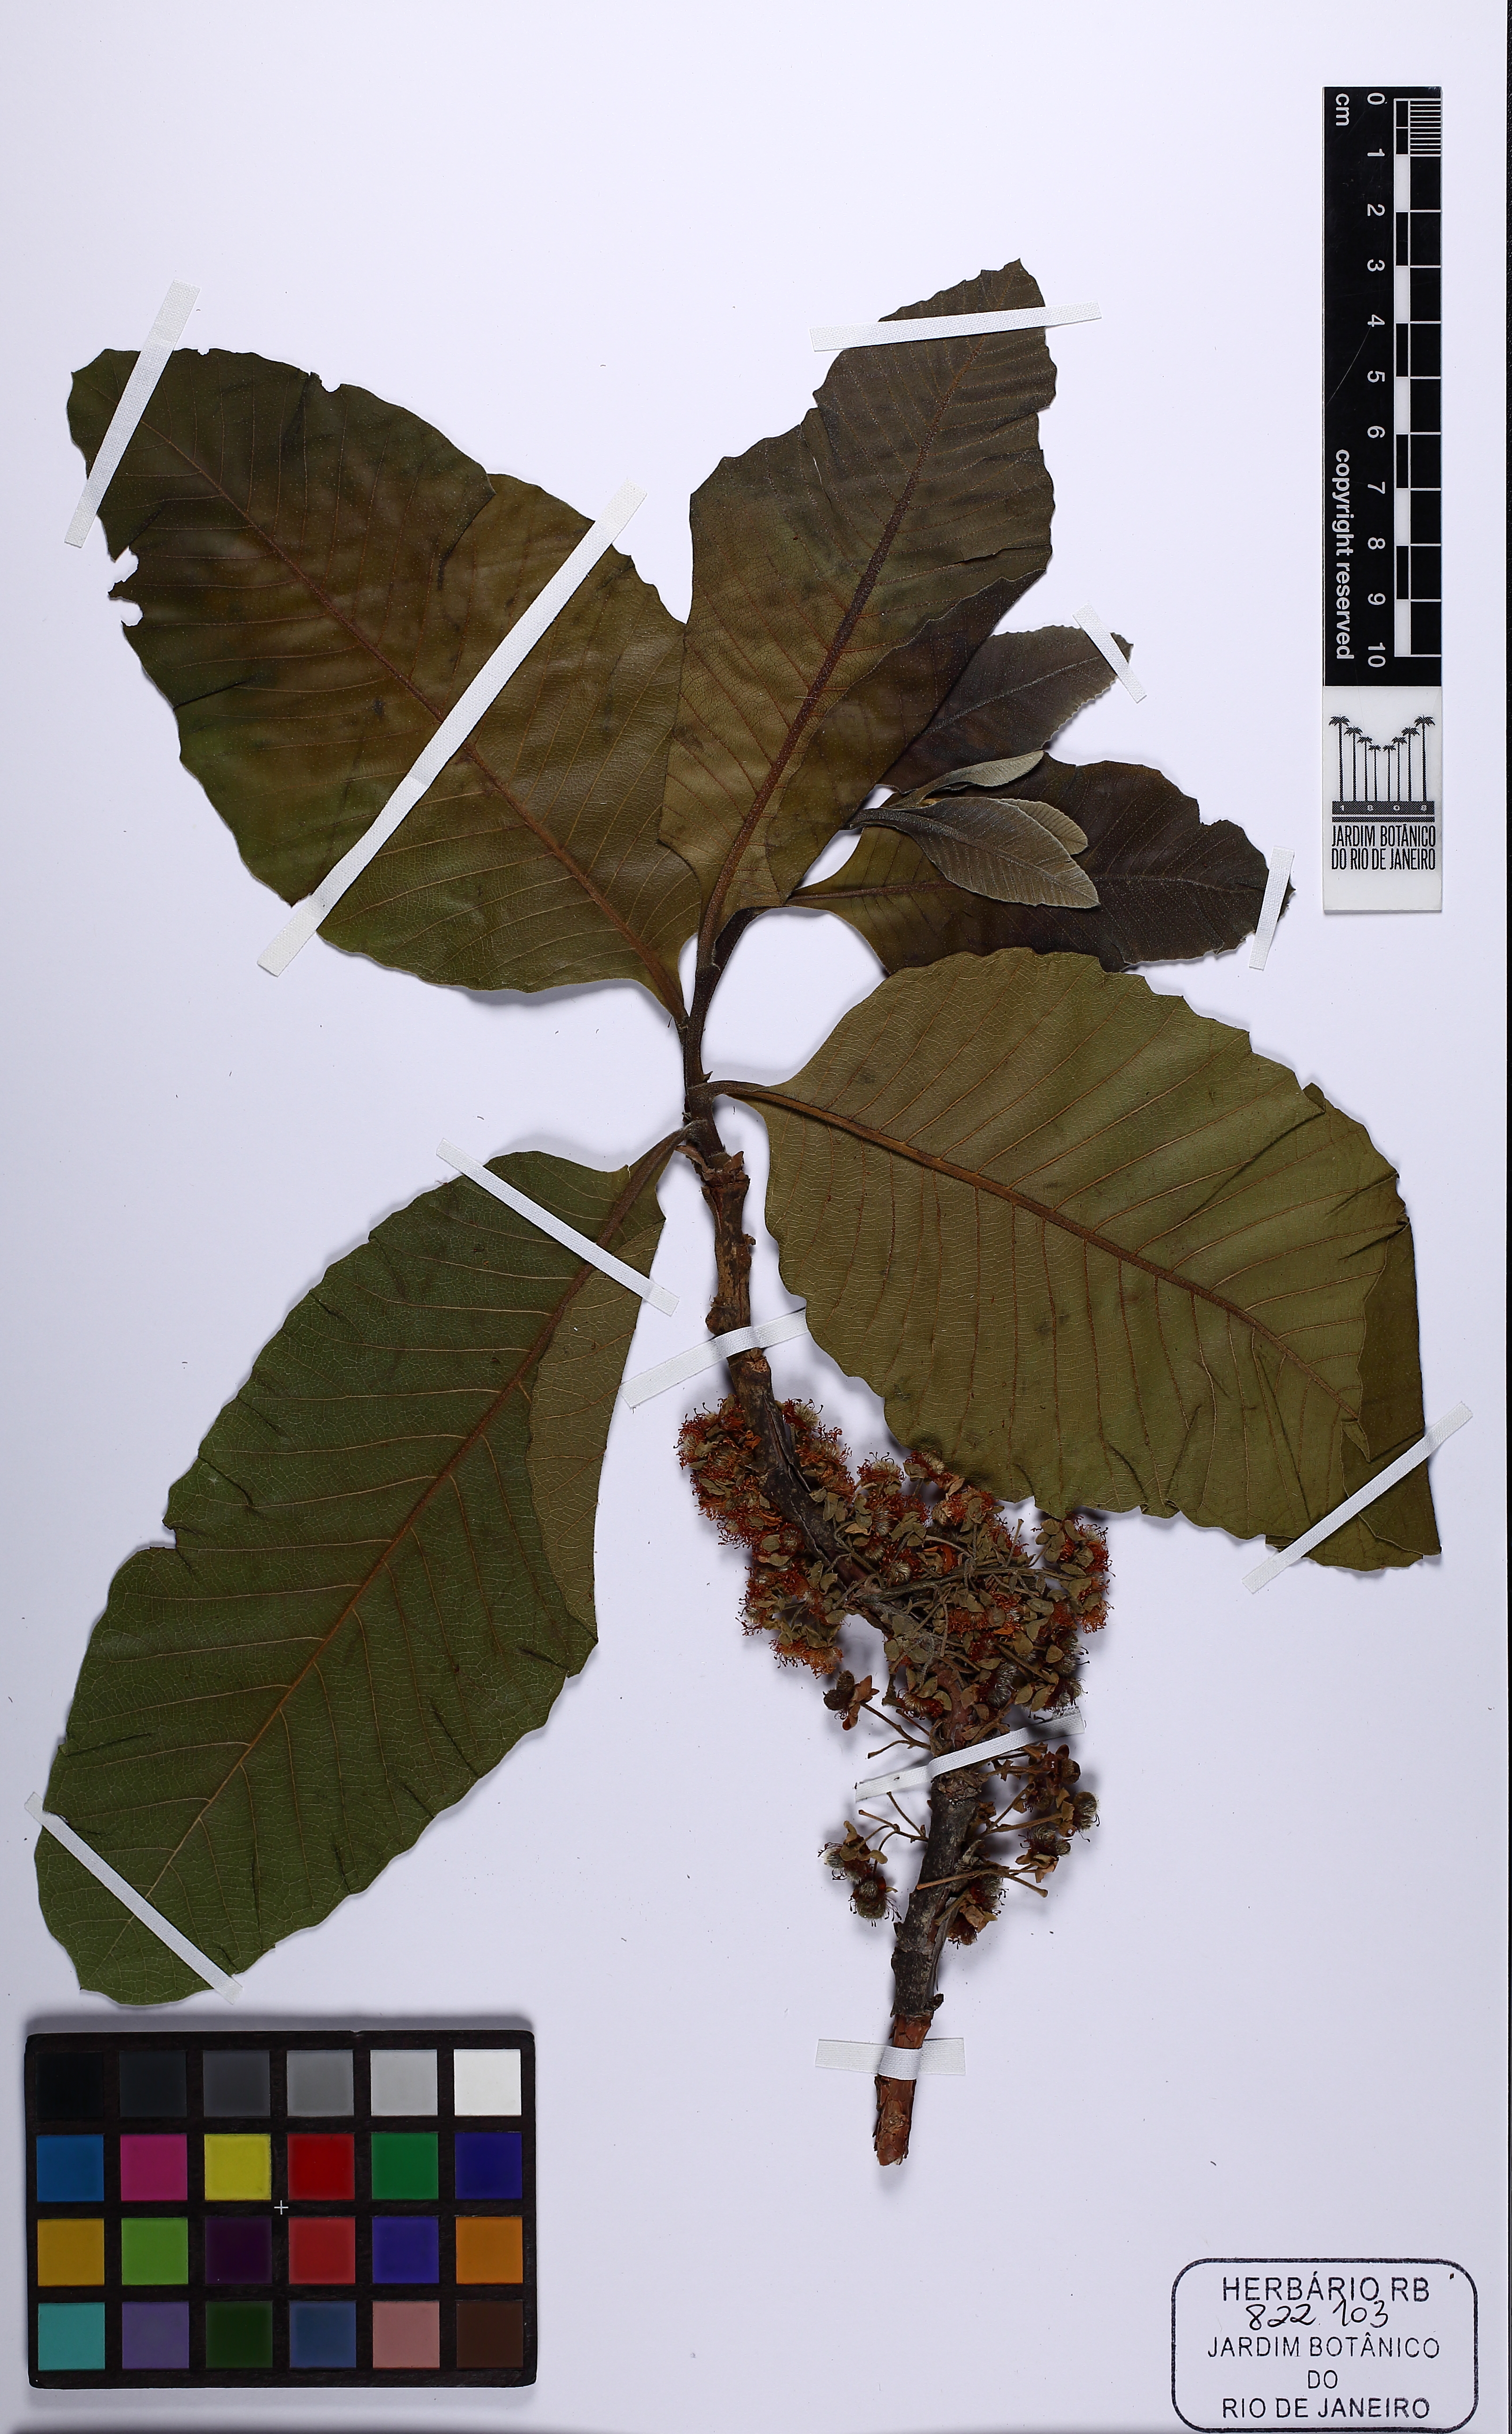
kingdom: Plantae
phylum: Tracheophyta
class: Magnoliopsida
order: Dilleniales
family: Dilleniaceae
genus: Curatella
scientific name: Curatella americana
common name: Sandpaper tree
